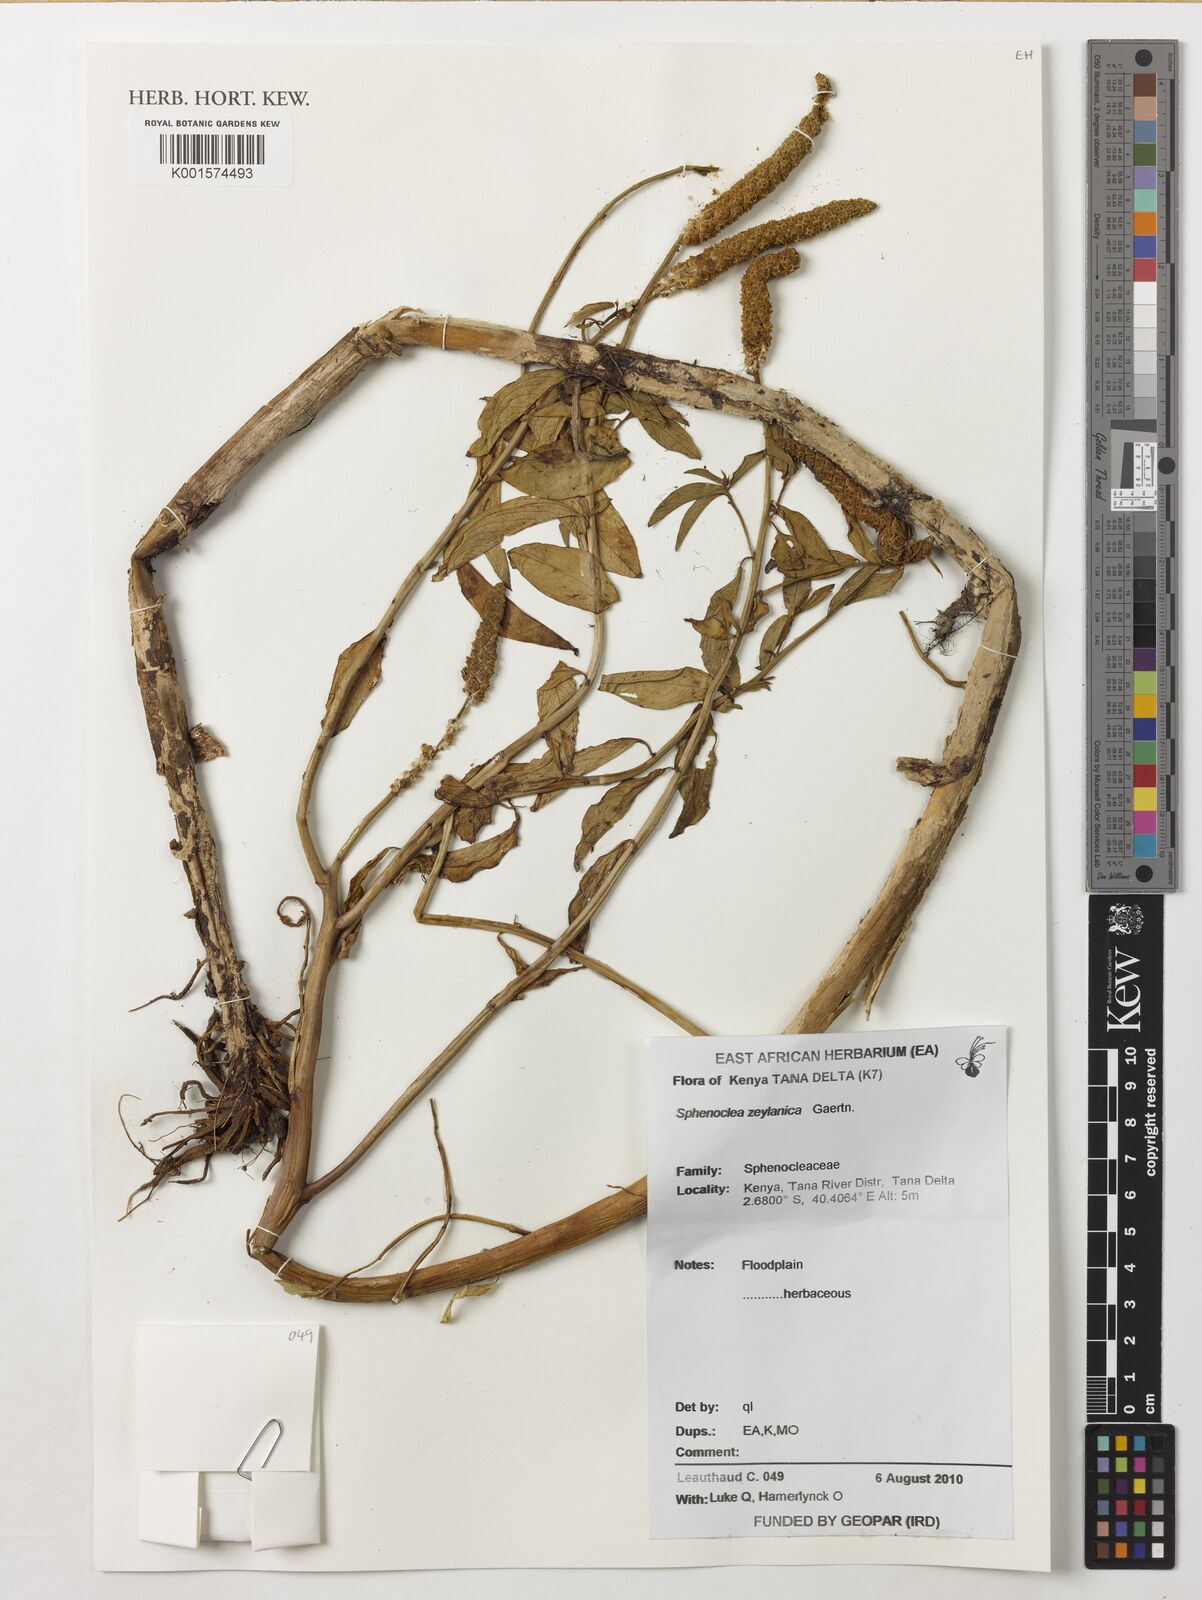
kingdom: Plantae
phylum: Tracheophyta
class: Magnoliopsida
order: Solanales
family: Sphenocleaceae
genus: Sphenoclea
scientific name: Sphenoclea zeylanica
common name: Chickenspike
